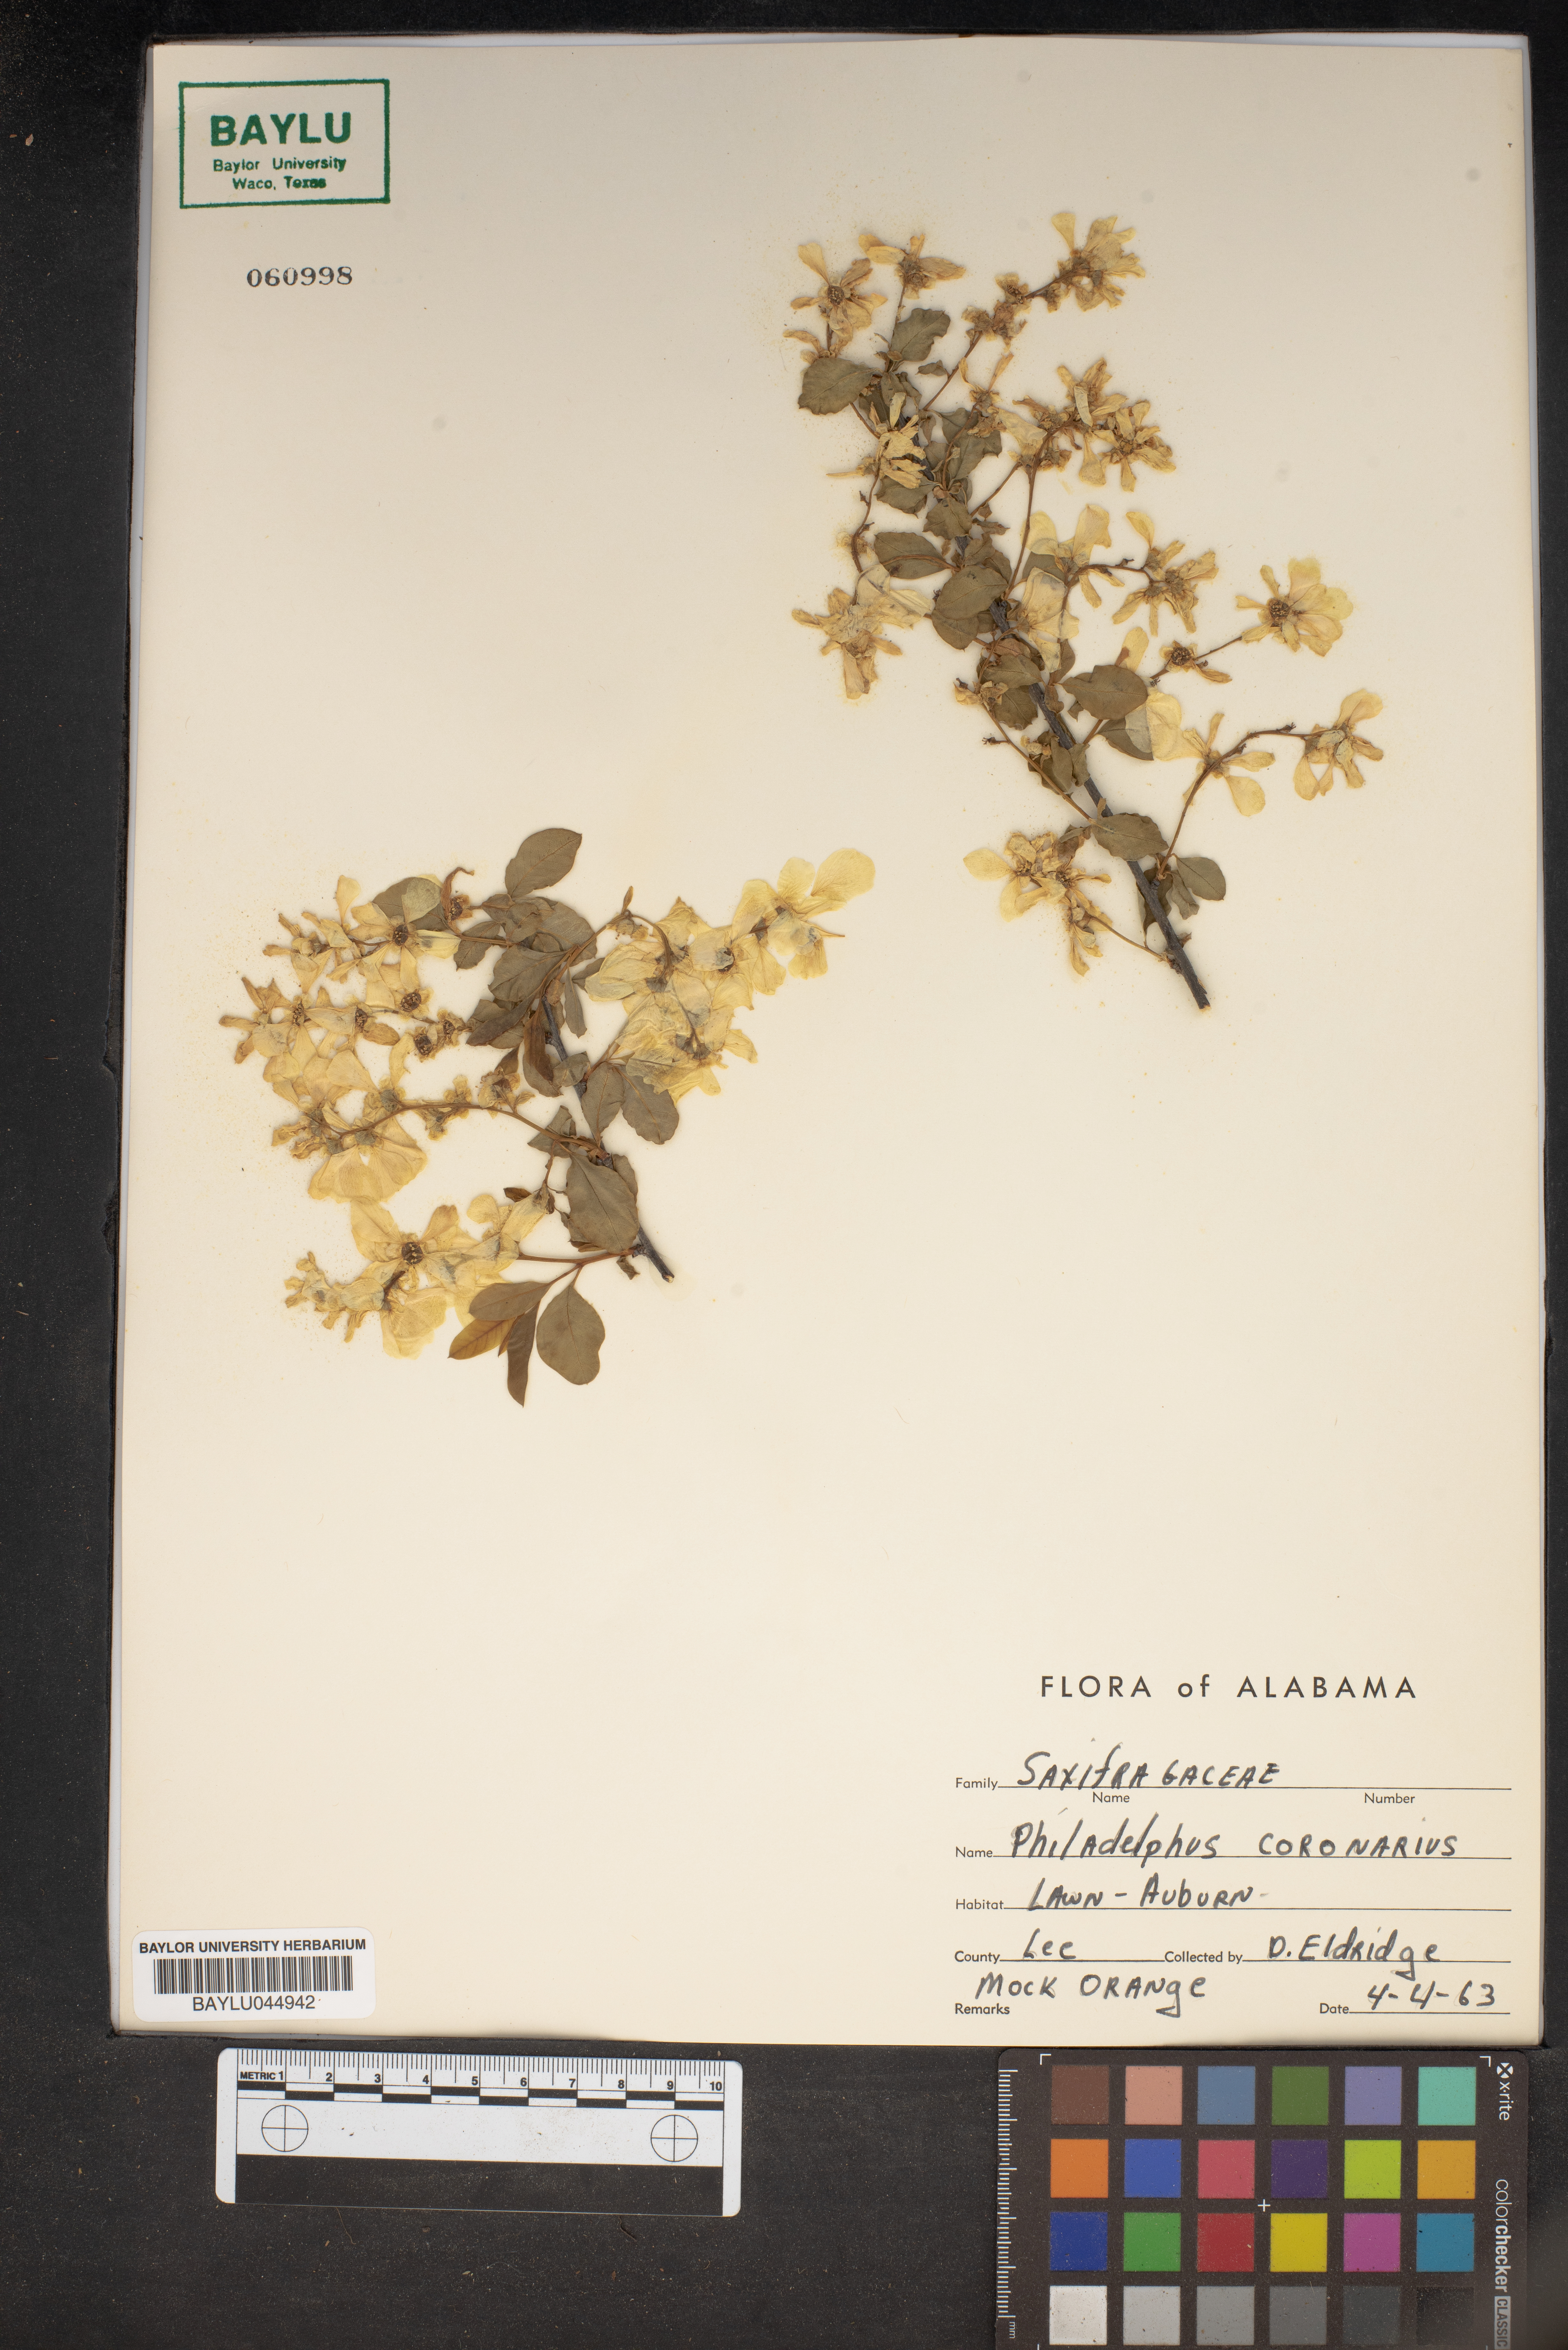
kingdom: Plantae
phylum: Tracheophyta
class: Magnoliopsida
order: Cornales
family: Hydrangeaceae
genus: Philadelphus
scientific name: Philadelphus coronarius
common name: Mock orange
